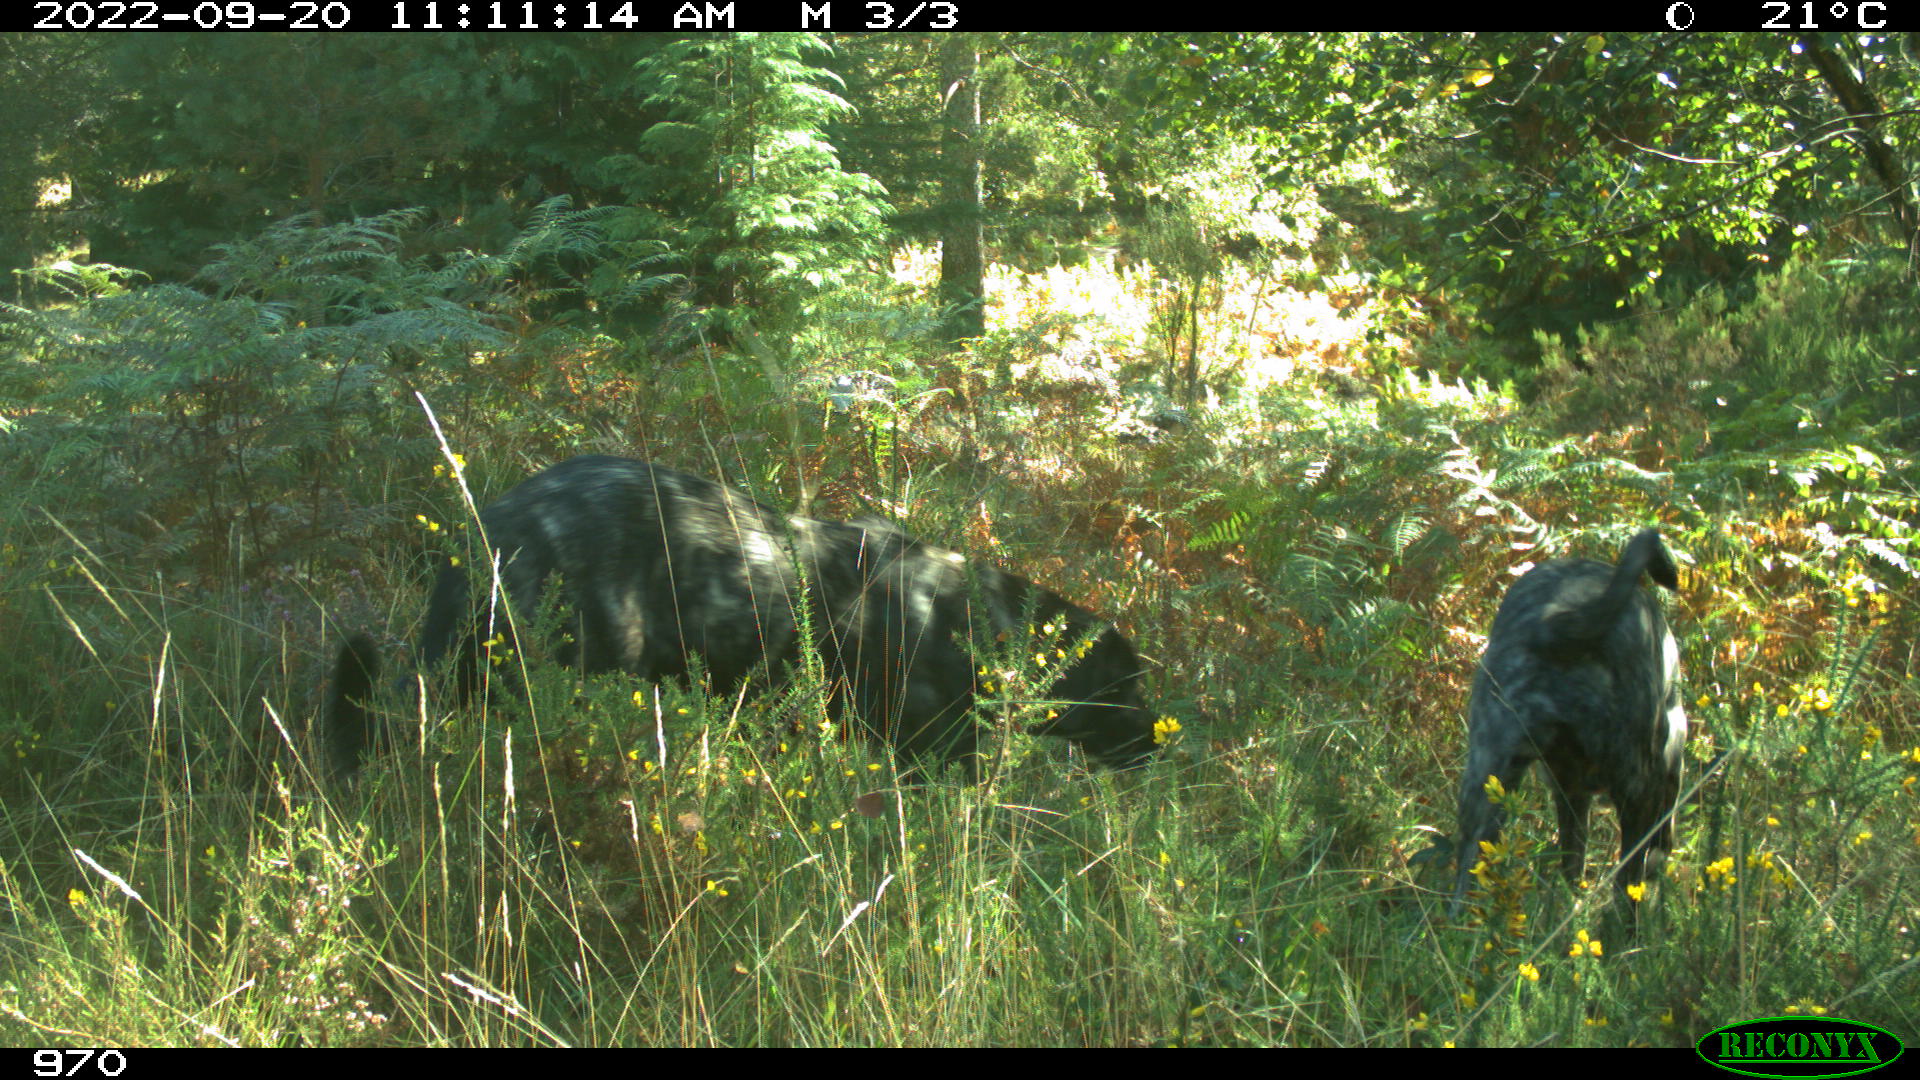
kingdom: Animalia
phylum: Chordata
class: Mammalia
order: Carnivora
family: Canidae
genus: Canis
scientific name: Canis lupus
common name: Gray wolf
